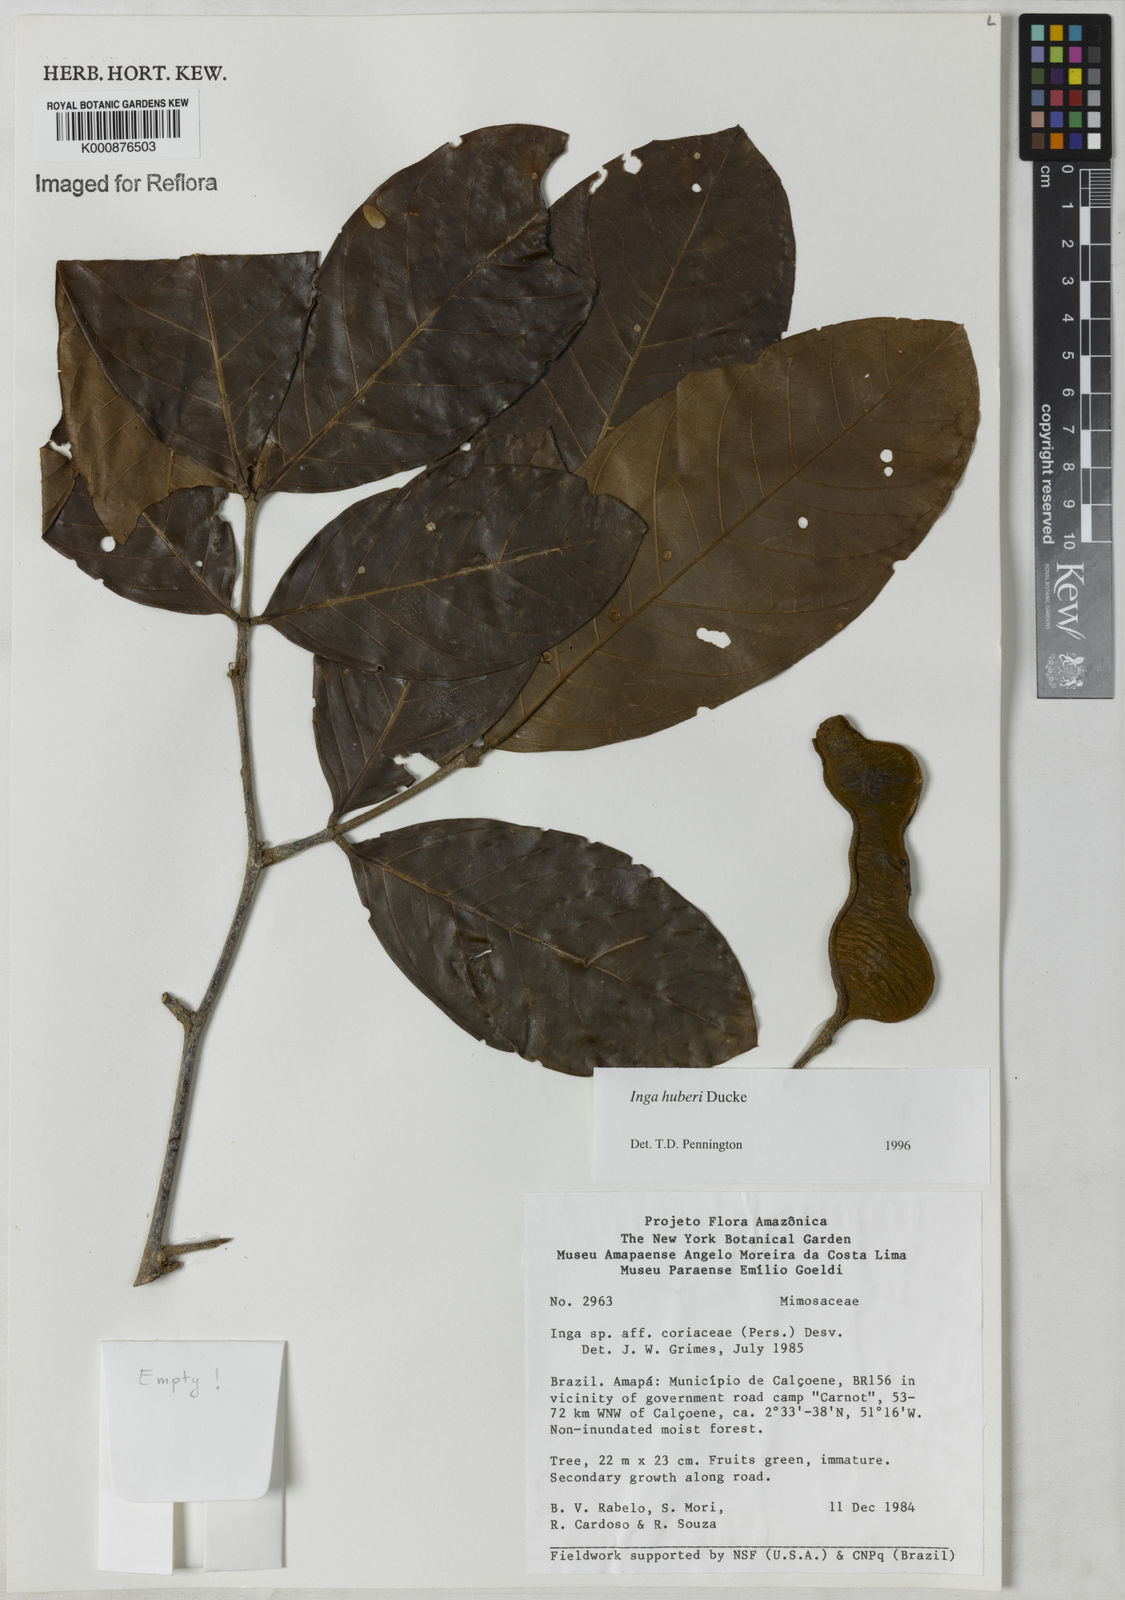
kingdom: Plantae
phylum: Tracheophyta
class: Magnoliopsida
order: Fabales
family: Fabaceae
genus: Inga
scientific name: Inga huberi
